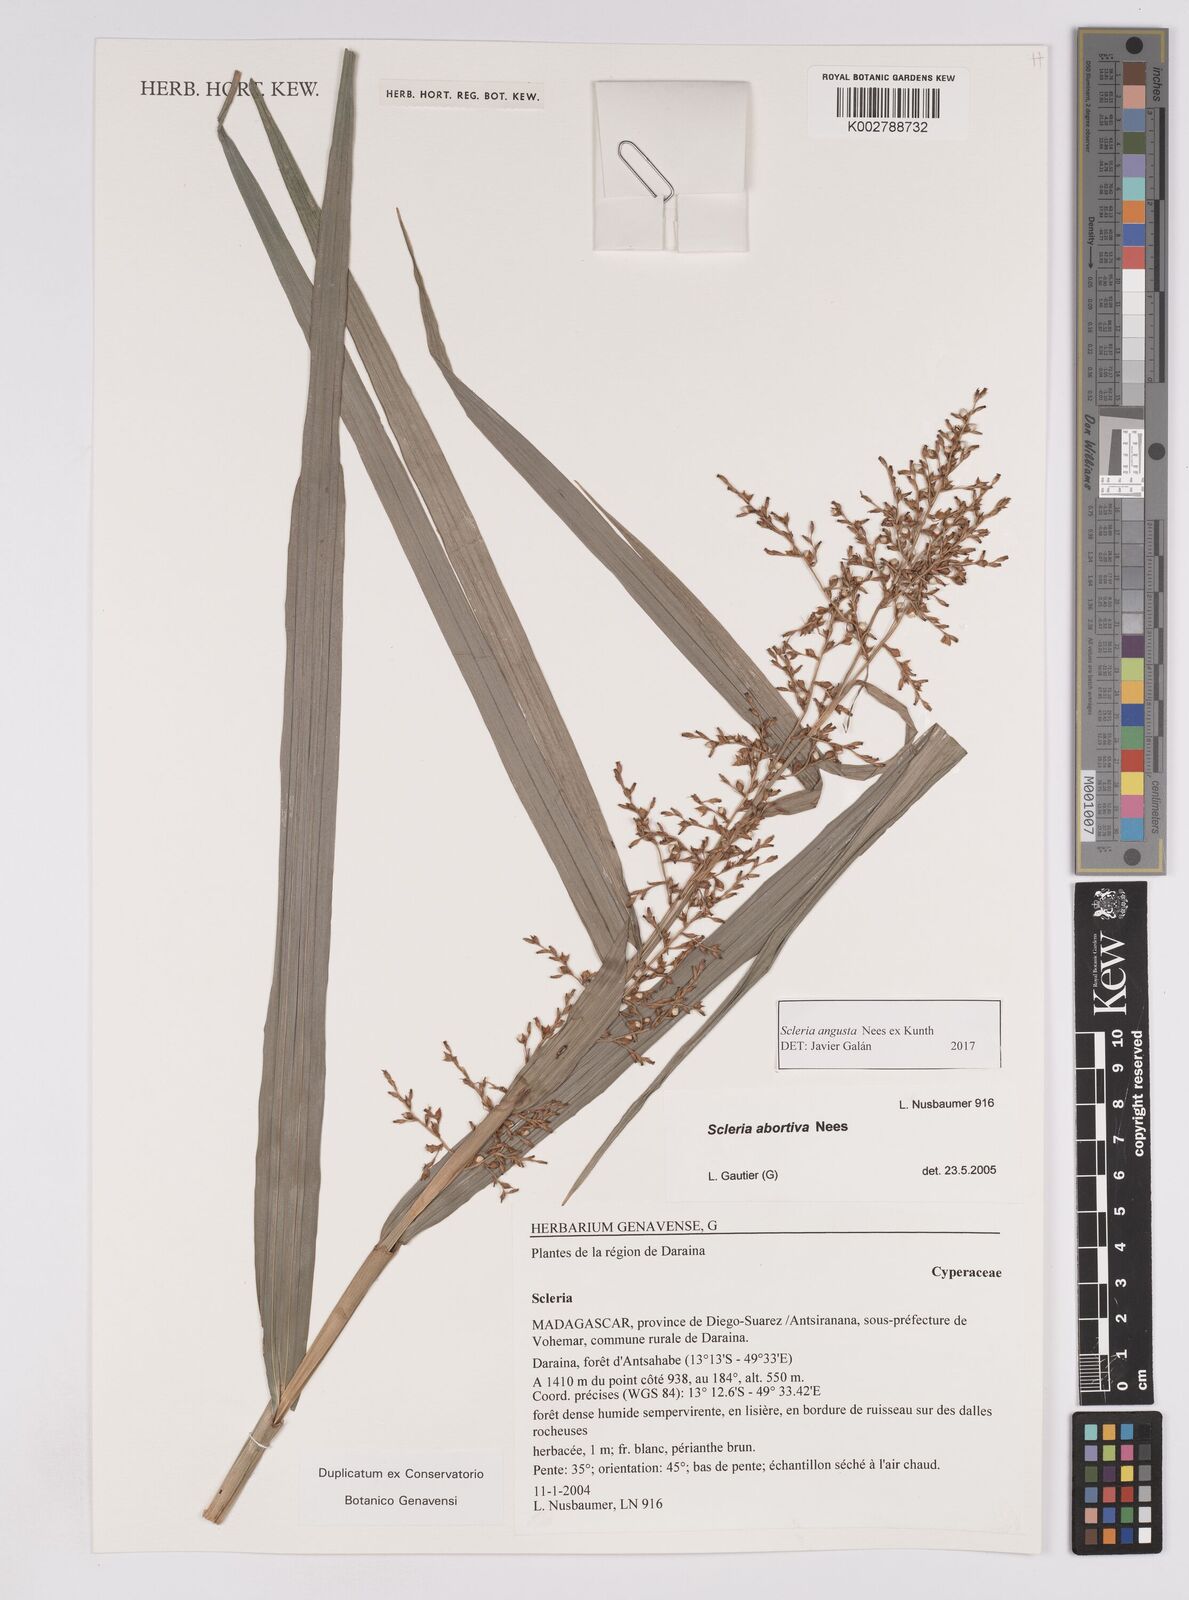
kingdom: Plantae
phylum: Tracheophyta
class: Liliopsida
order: Poales
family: Cyperaceae
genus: Scleria
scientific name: Scleria angusta
